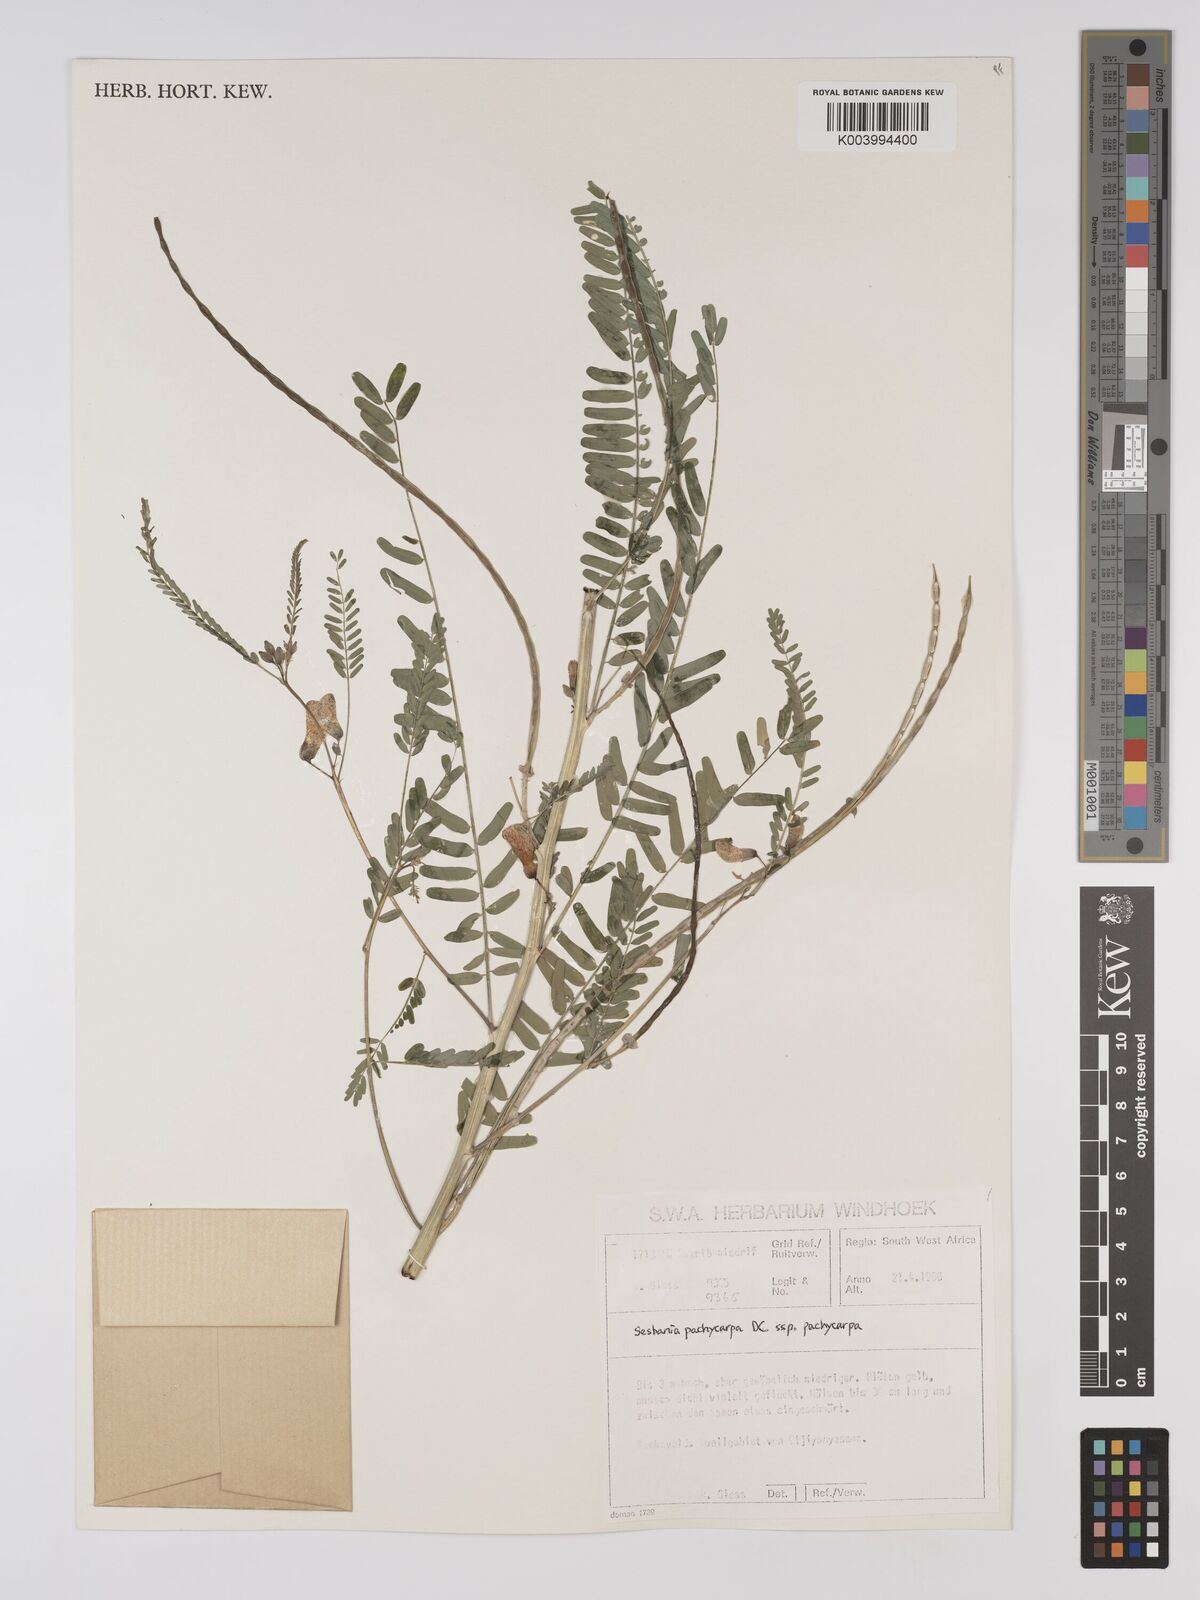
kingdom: Plantae
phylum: Tracheophyta
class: Magnoliopsida
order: Fabales
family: Fabaceae
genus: Sesbania
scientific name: Sesbania pachycarpa
